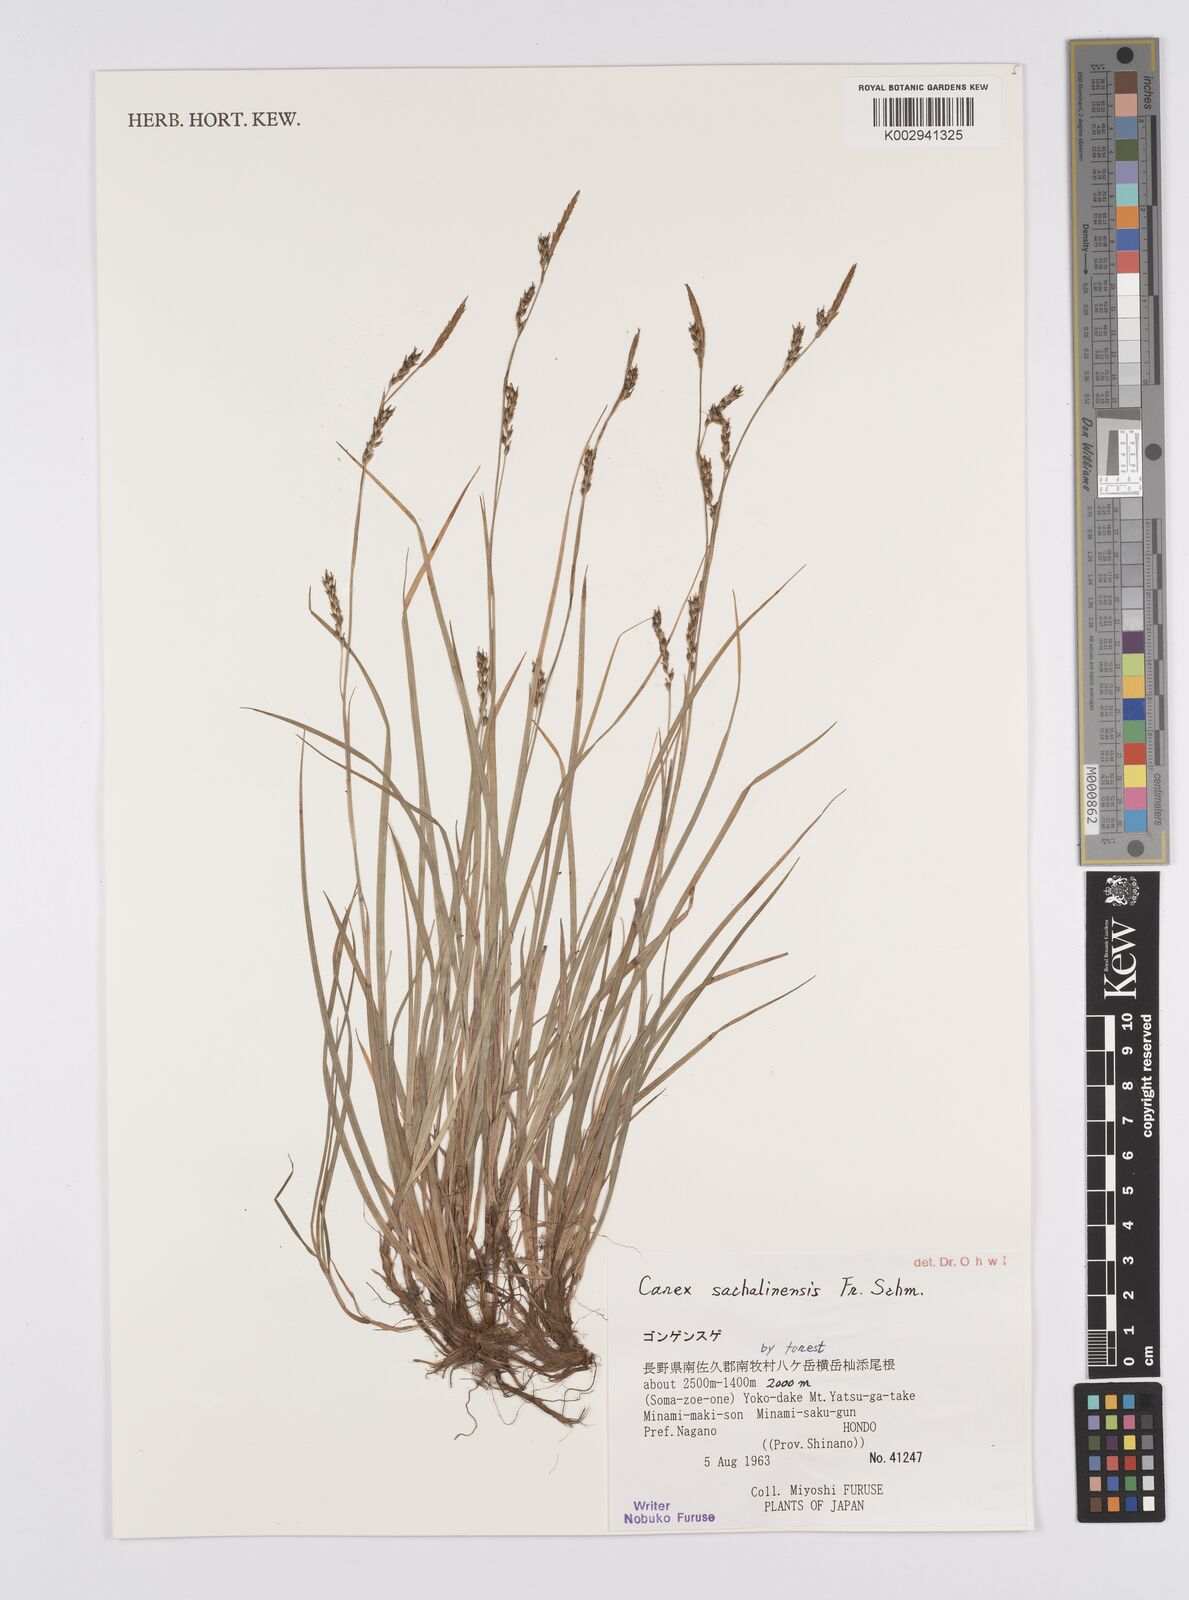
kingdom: Plantae
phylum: Tracheophyta
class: Liliopsida
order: Poales
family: Cyperaceae
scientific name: Cyperaceae
